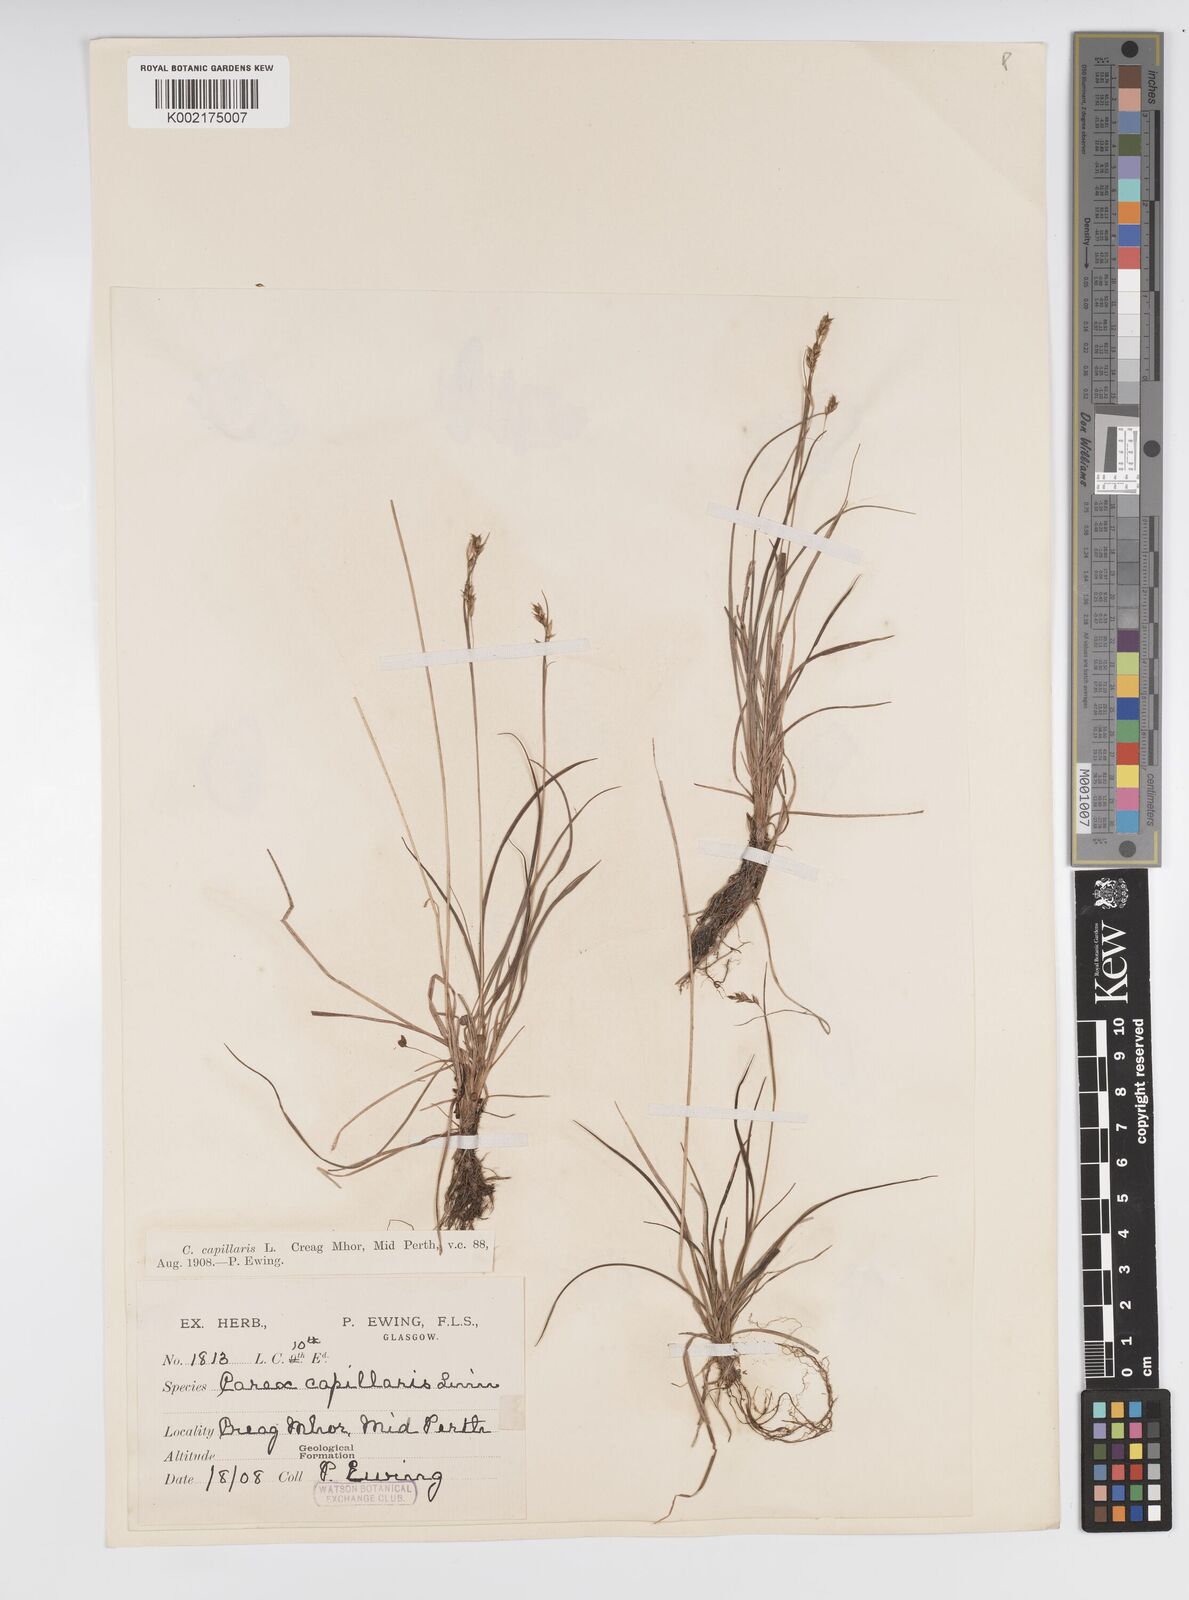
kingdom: Plantae
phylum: Tracheophyta
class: Liliopsida
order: Poales
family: Cyperaceae
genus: Carex
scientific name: Carex capillaris
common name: Hair sedge
